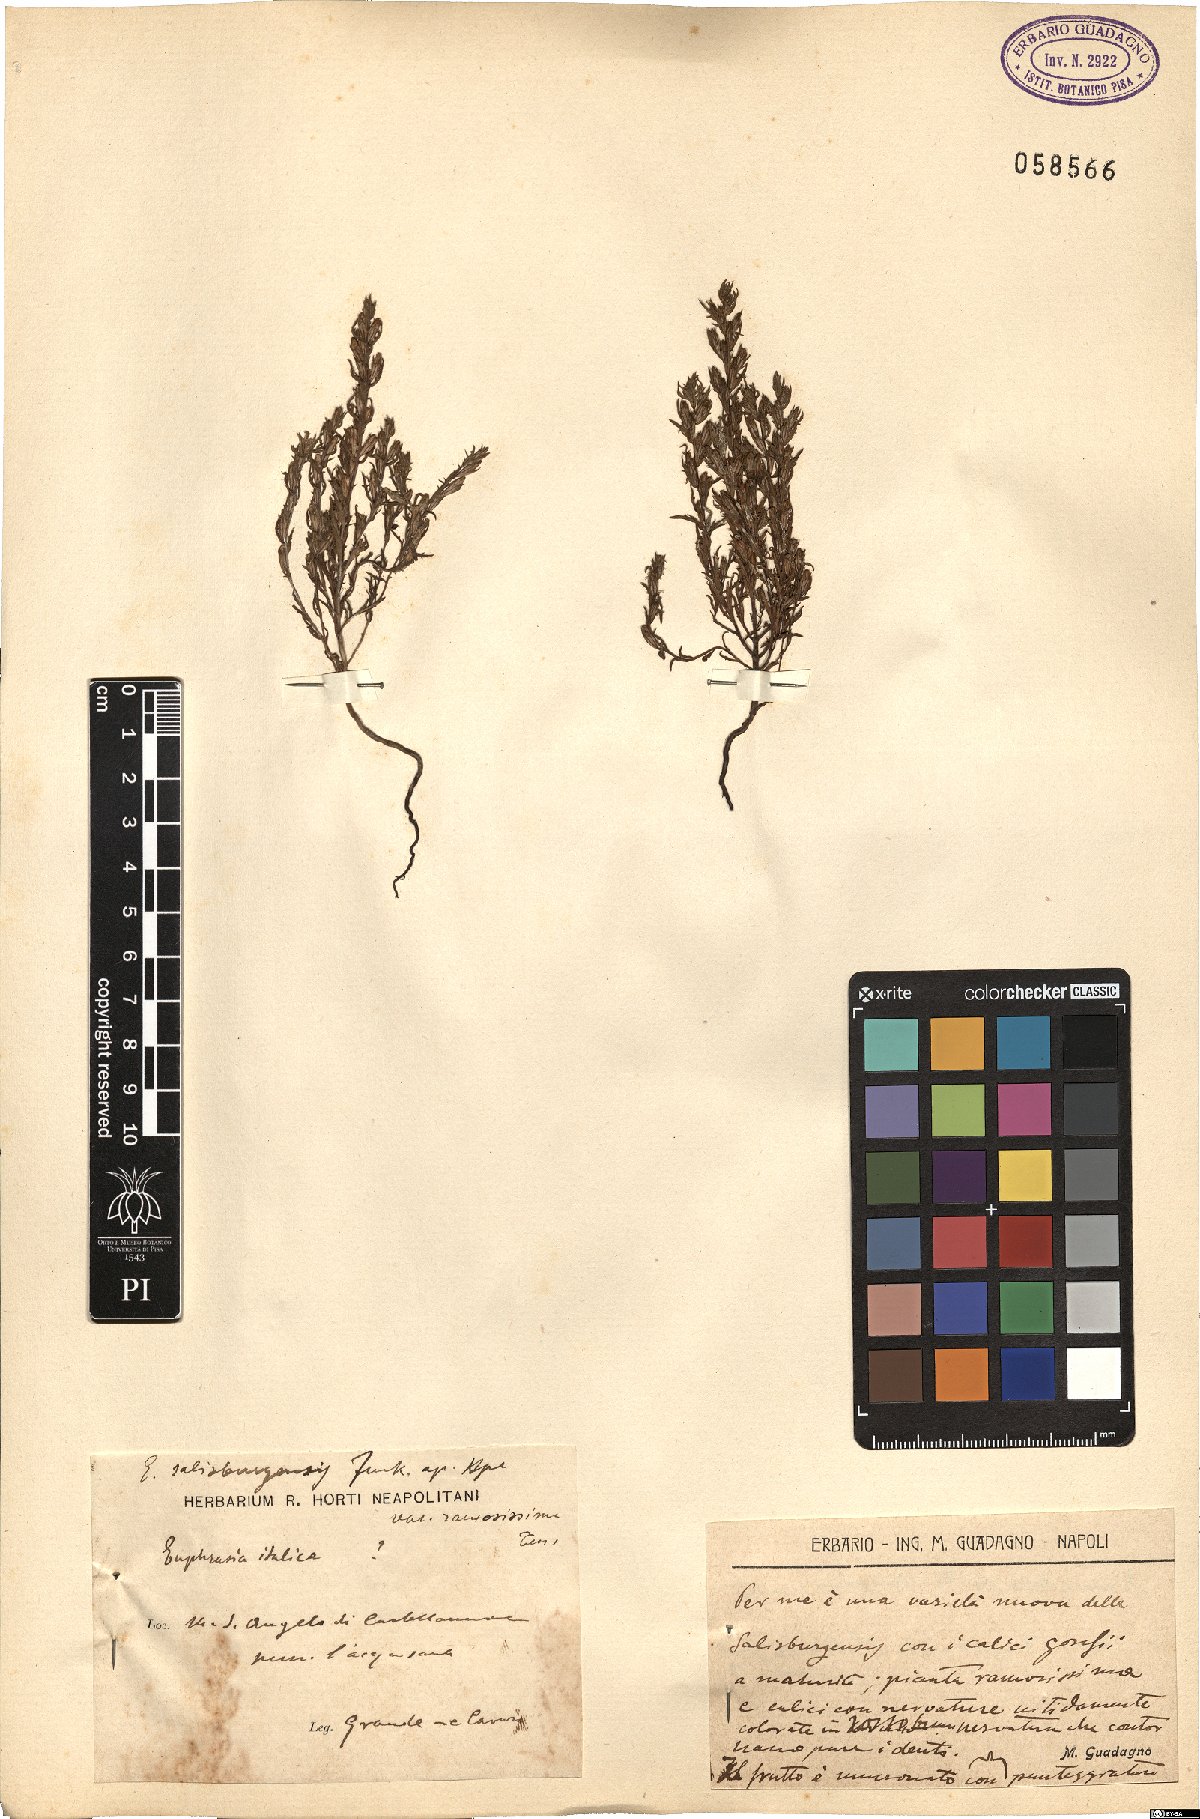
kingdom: Plantae
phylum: Tracheophyta
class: Magnoliopsida
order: Lamiales
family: Orobanchaceae
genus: Euphrasia
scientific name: Euphrasia salisburgensis
